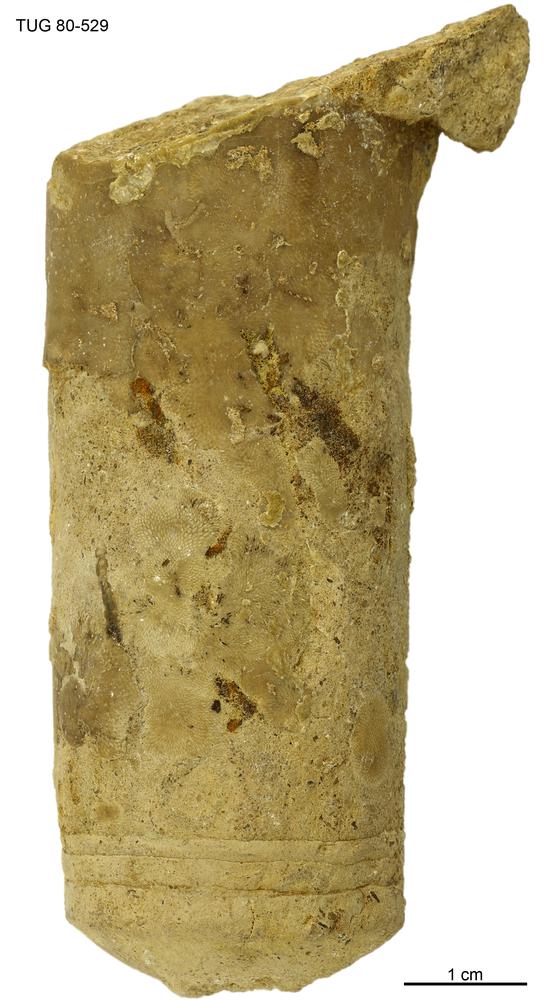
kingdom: Animalia
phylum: Mollusca
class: Cephalopoda
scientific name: Cephalopoda
